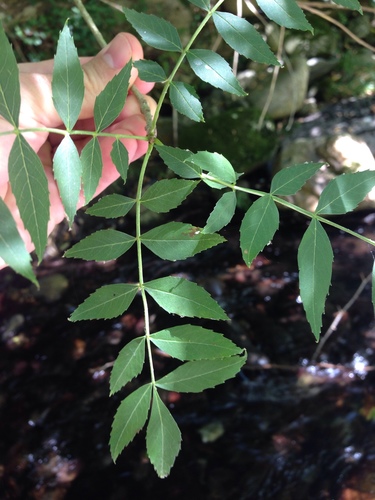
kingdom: Plantae
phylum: Tracheophyta
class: Magnoliopsida
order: Lamiales
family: Oleaceae
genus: Fraxinus
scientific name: Fraxinus angustifolia
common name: Narrow-leafed ash
